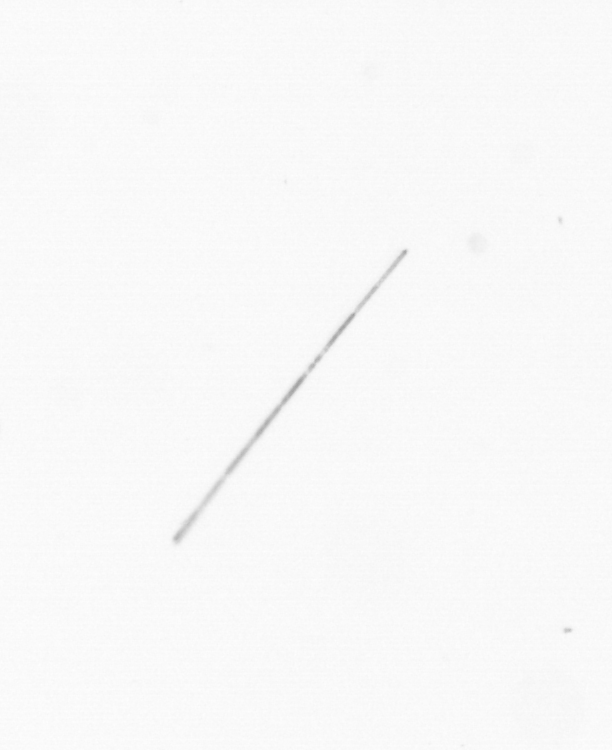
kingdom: Chromista
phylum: Ochrophyta
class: Bacillariophyceae
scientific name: Bacillariophyceae
